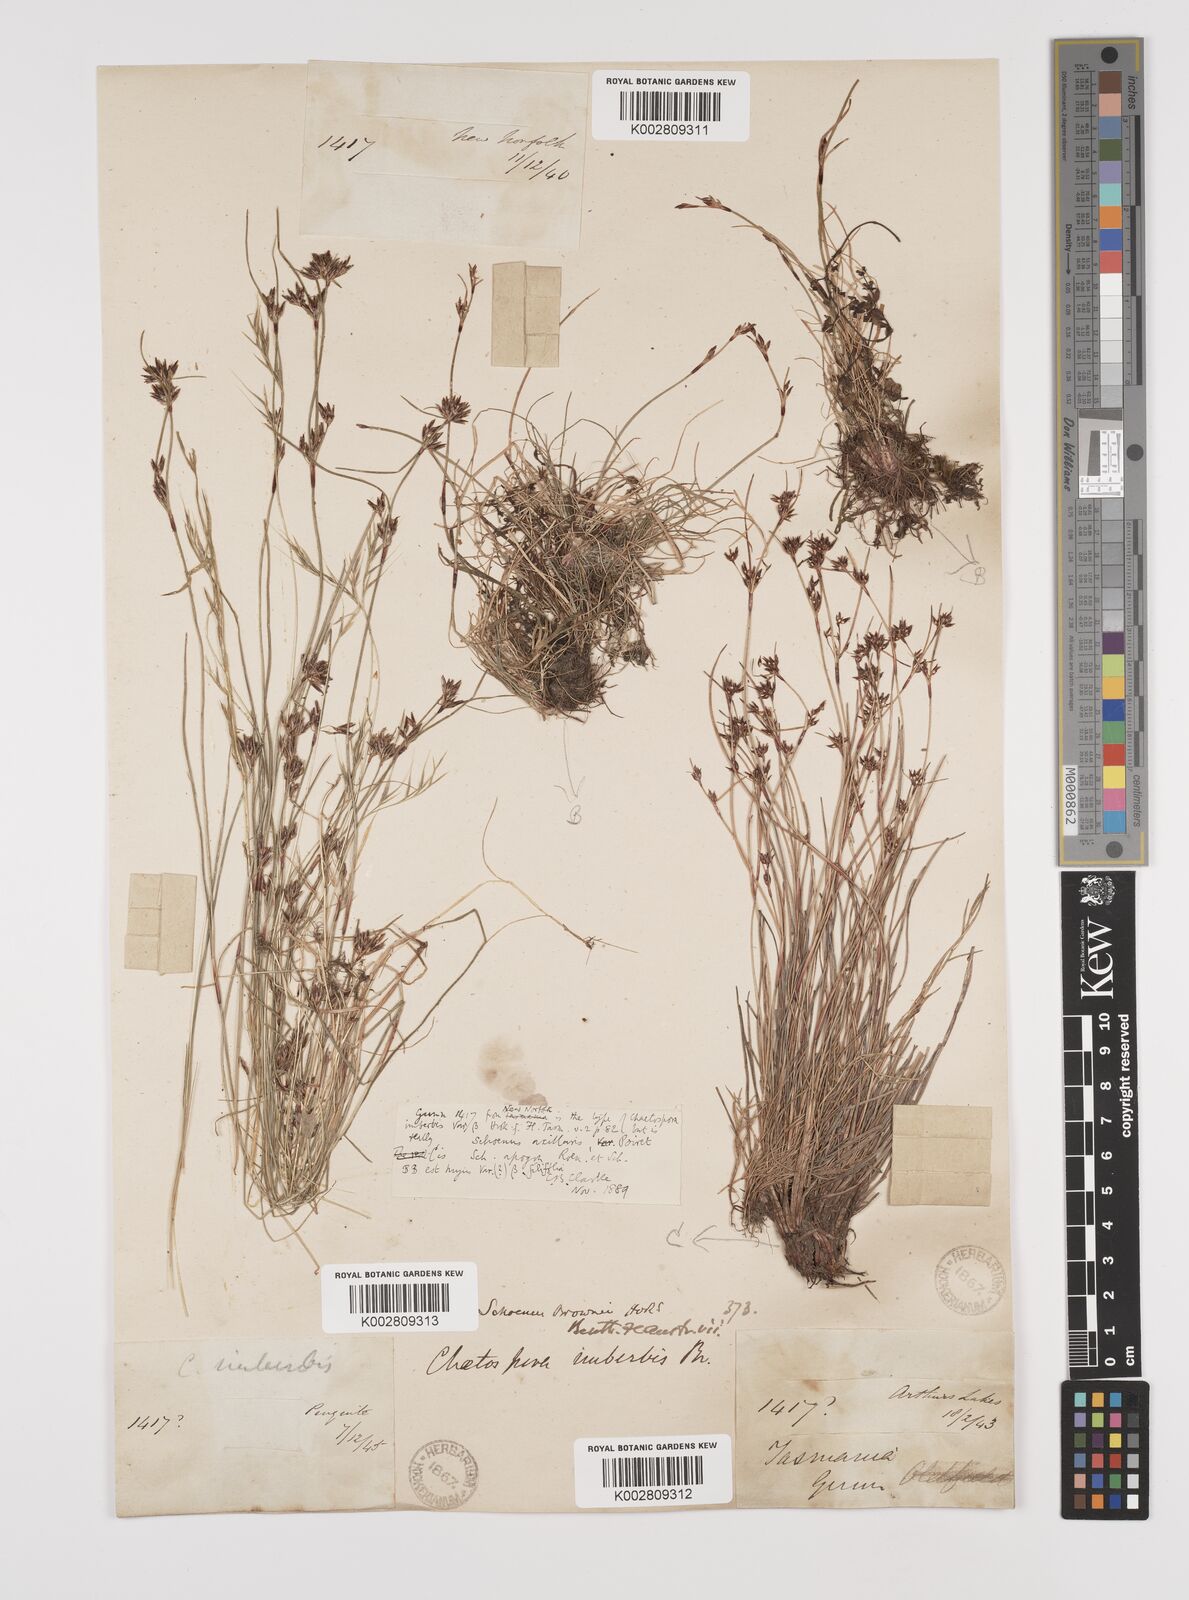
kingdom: Plantae
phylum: Tracheophyta
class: Liliopsida
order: Poales
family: Cyperaceae
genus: Schoenus
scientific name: Schoenus apogon
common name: Smooth bogrush
